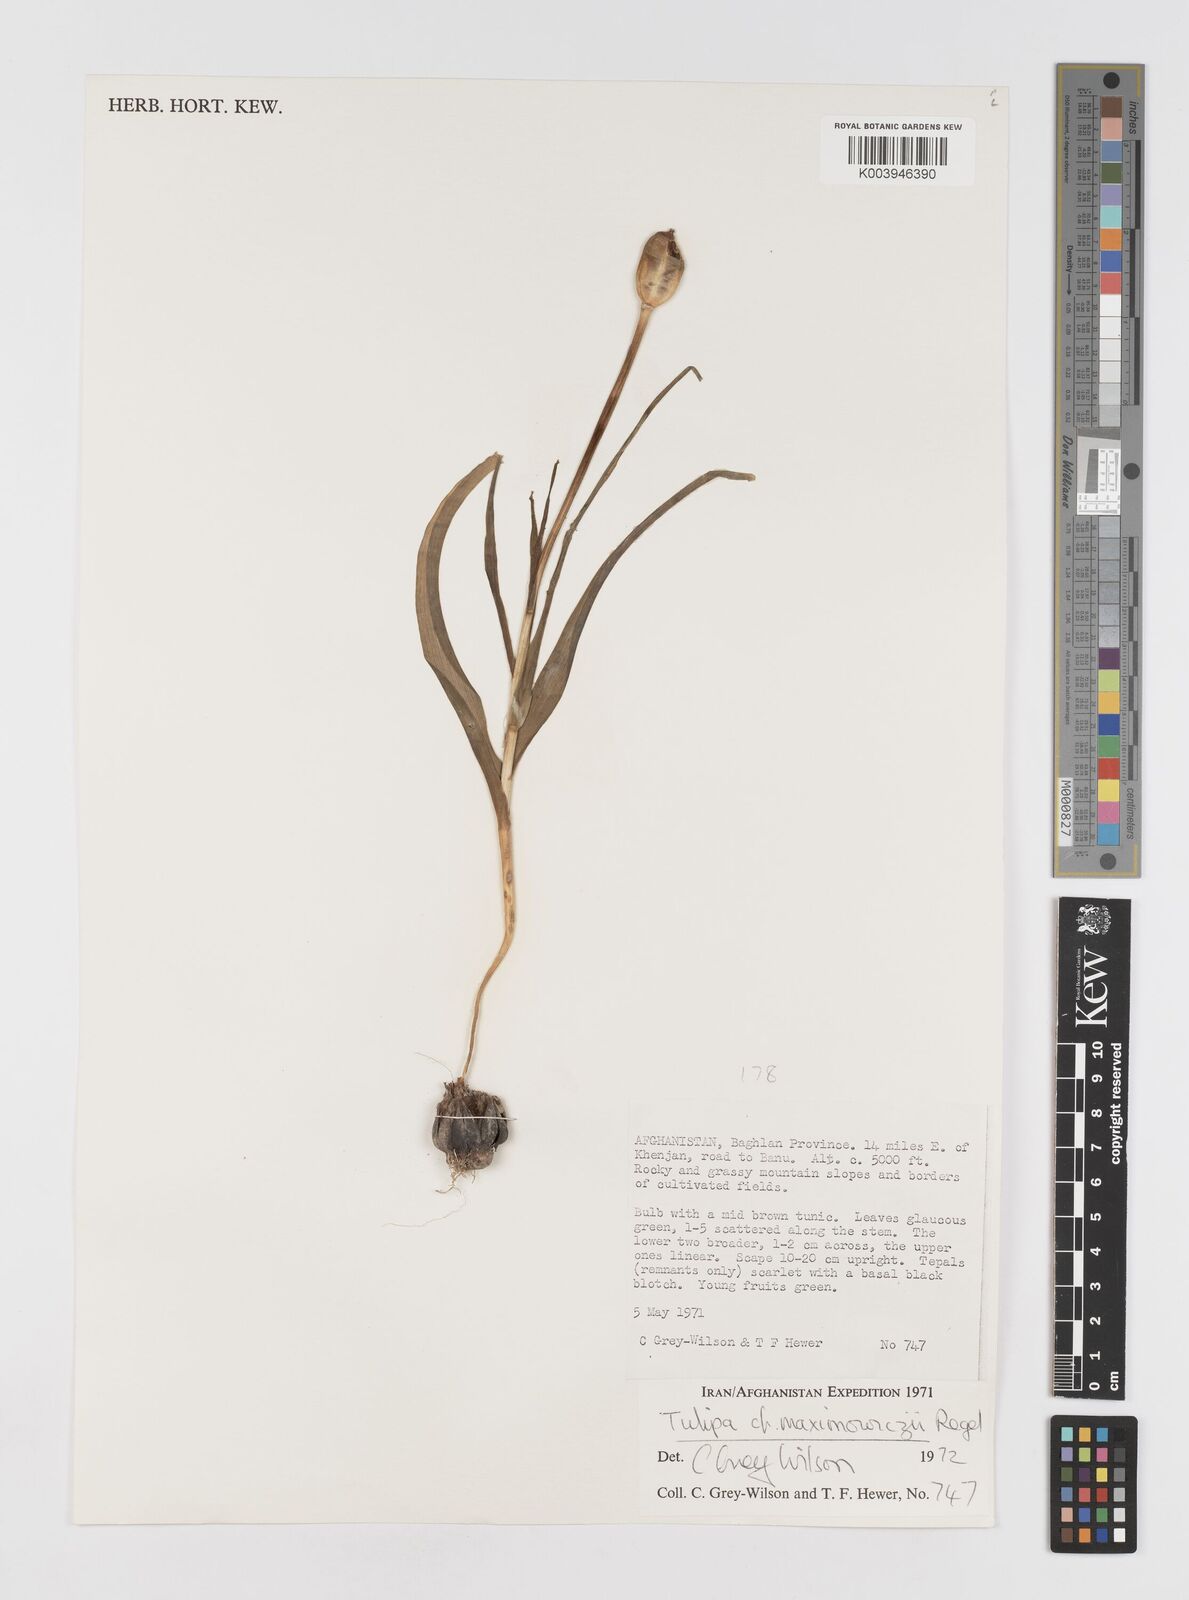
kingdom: Plantae
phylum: Tracheophyta
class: Liliopsida
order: Liliales
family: Liliaceae
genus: Tulipa
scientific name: Tulipa linifolia
